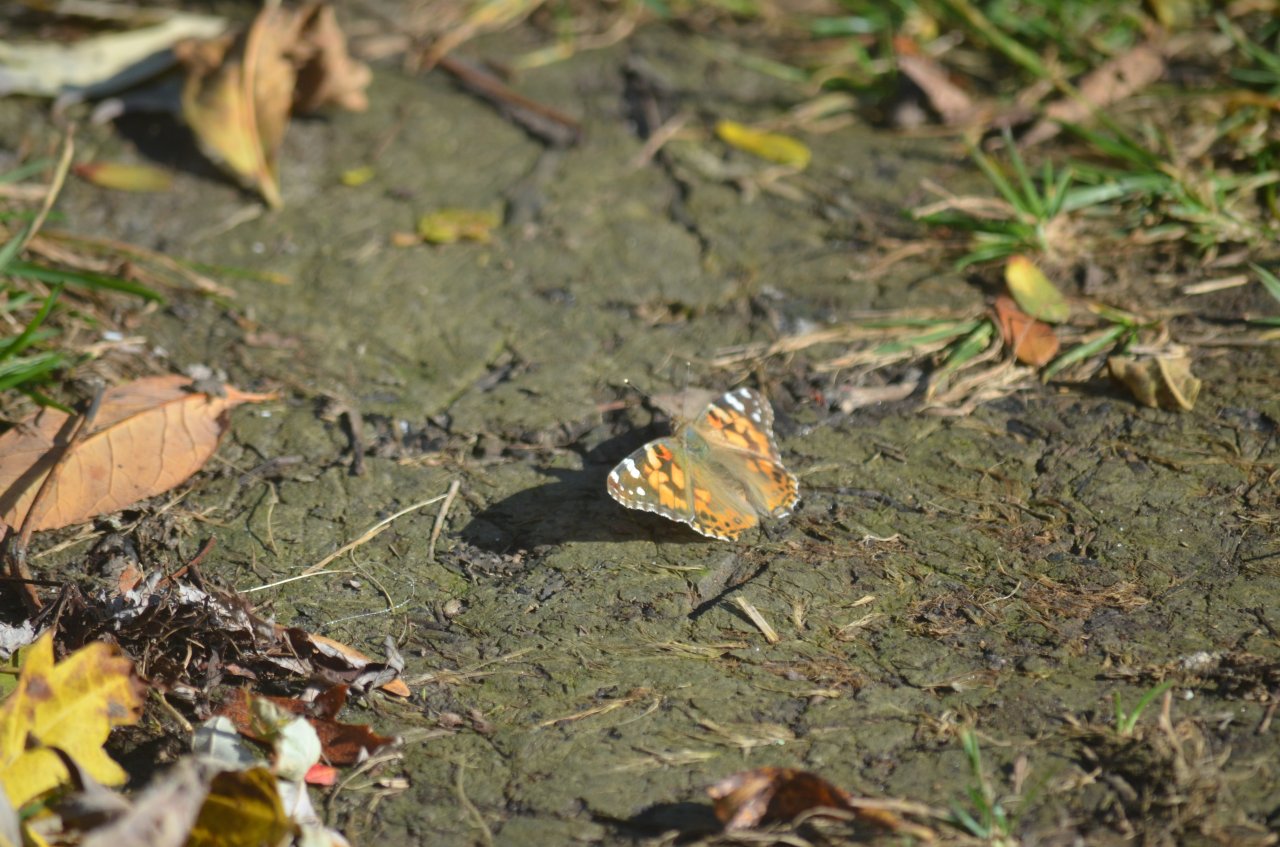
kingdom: Animalia
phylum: Arthropoda
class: Insecta
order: Lepidoptera
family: Nymphalidae
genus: Vanessa
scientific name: Vanessa cardui
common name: Painted Lady
